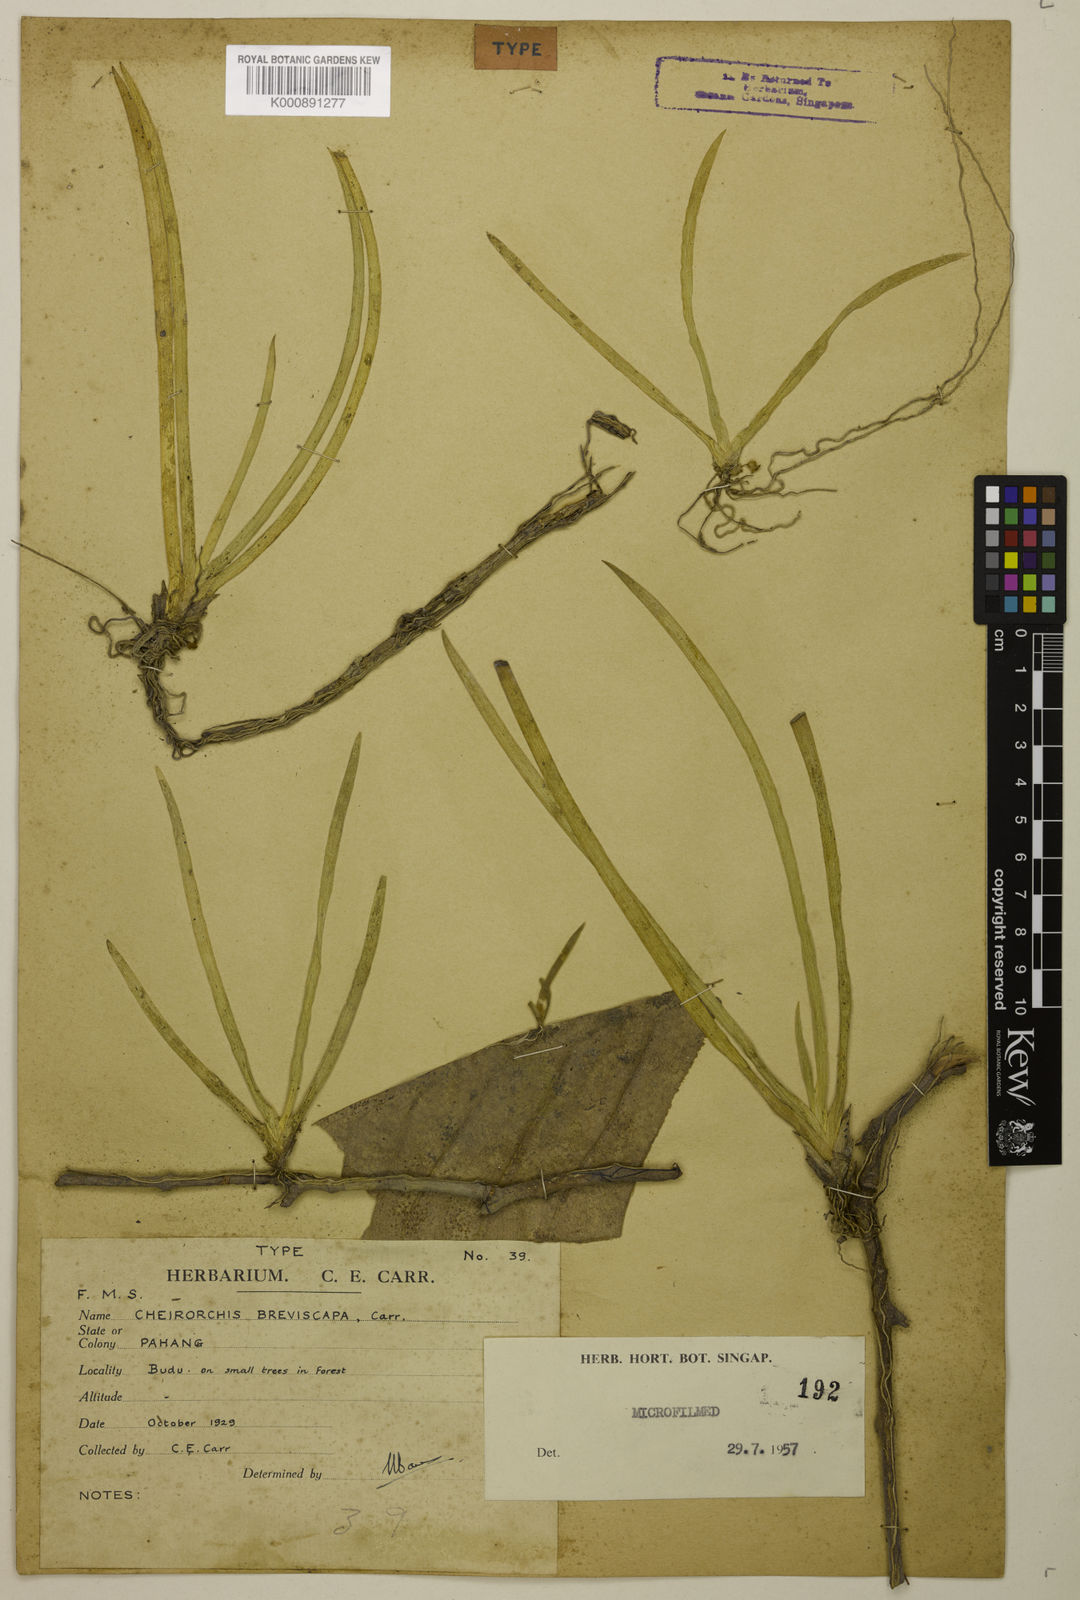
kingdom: Plantae
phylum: Tracheophyta
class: Liliopsida
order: Asparagales
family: Orchidaceae
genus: Thrixspermum
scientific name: Thrixspermum breviscapum
